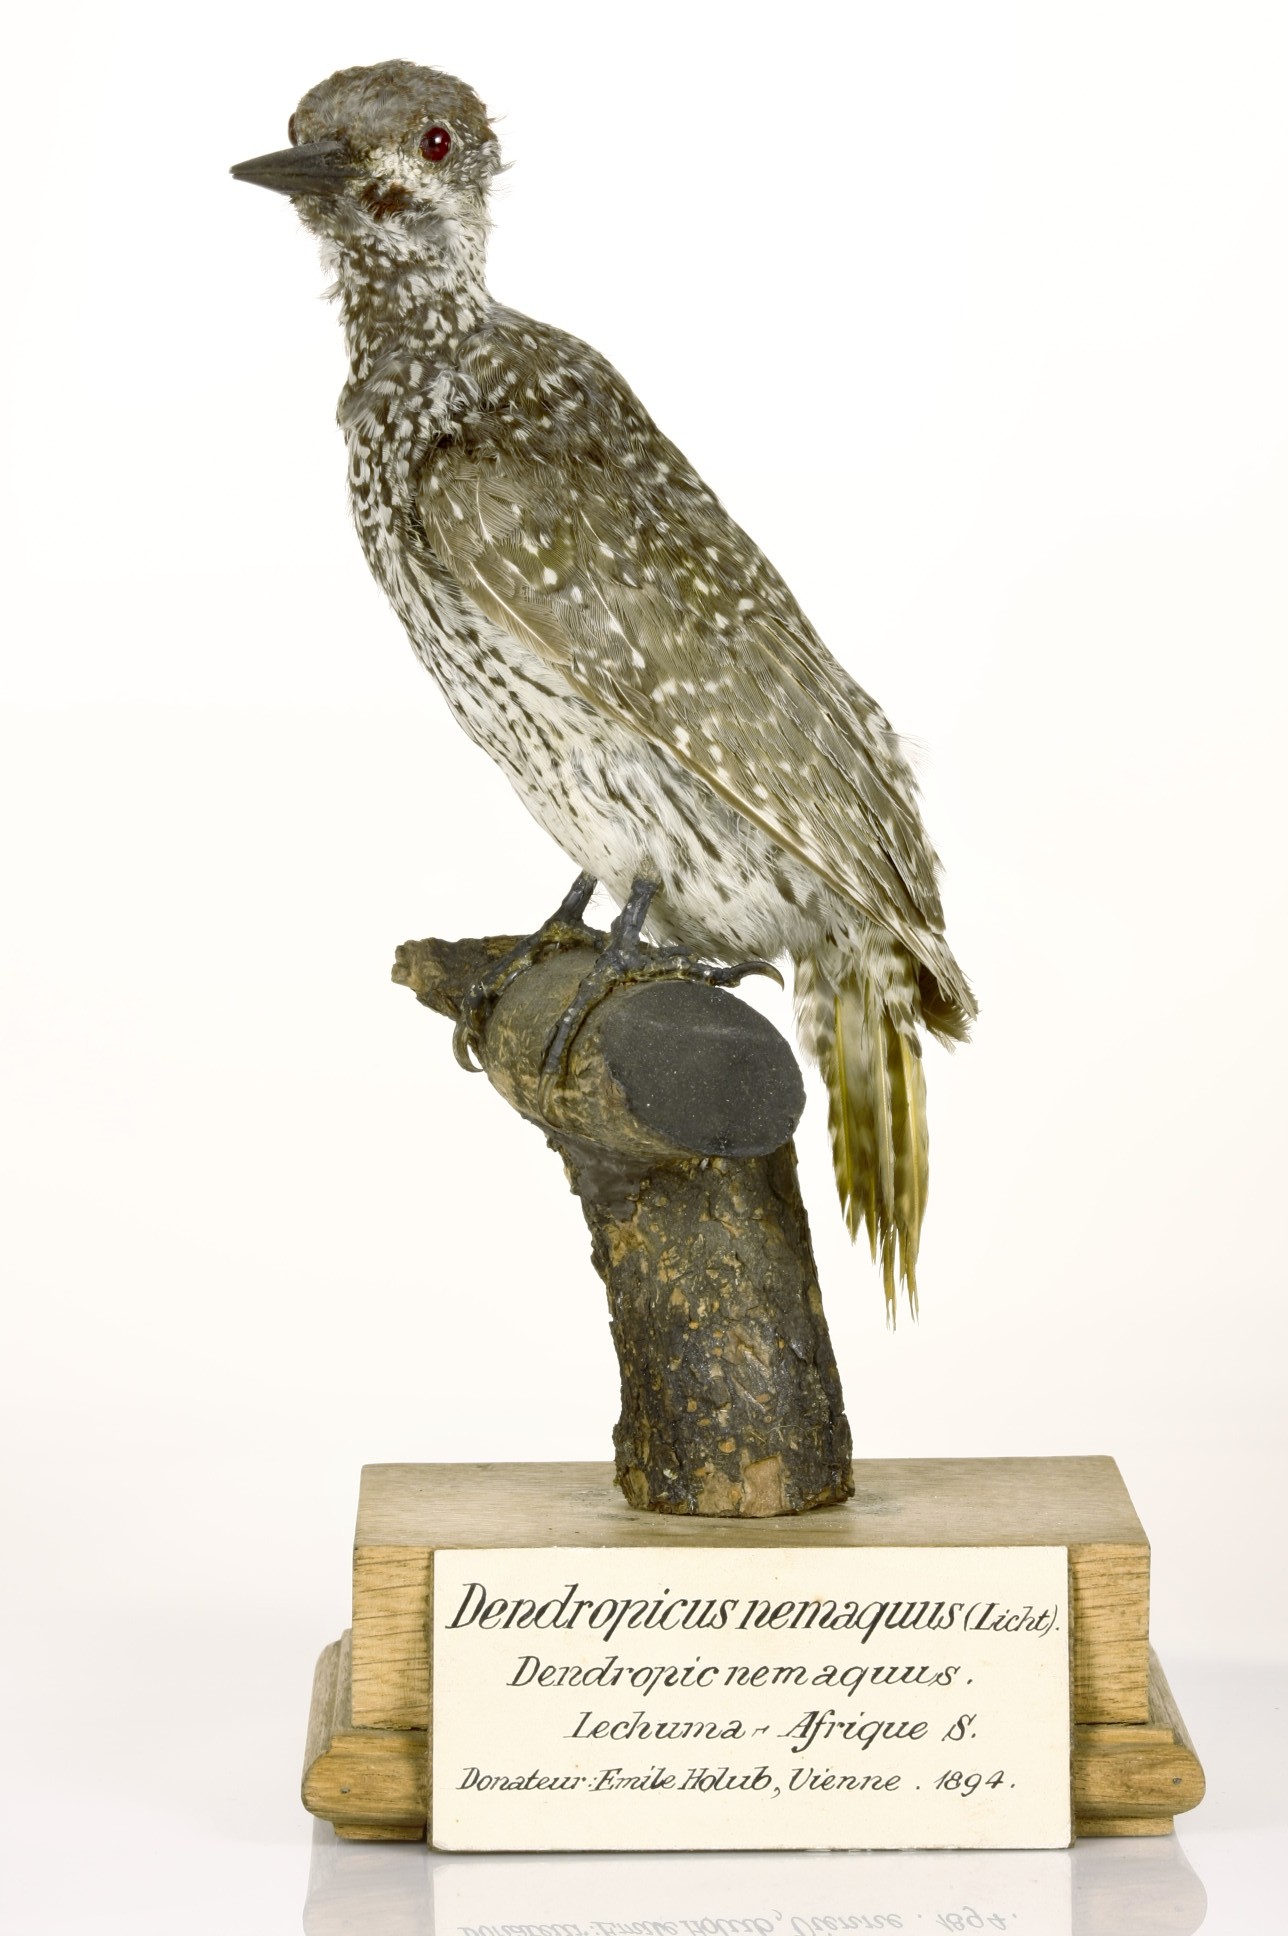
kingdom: Animalia
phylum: Chordata
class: Aves
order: Piciformes
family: Picidae
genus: Campethera
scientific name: Campethera abingoni
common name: Golden-tailed woodpecker
